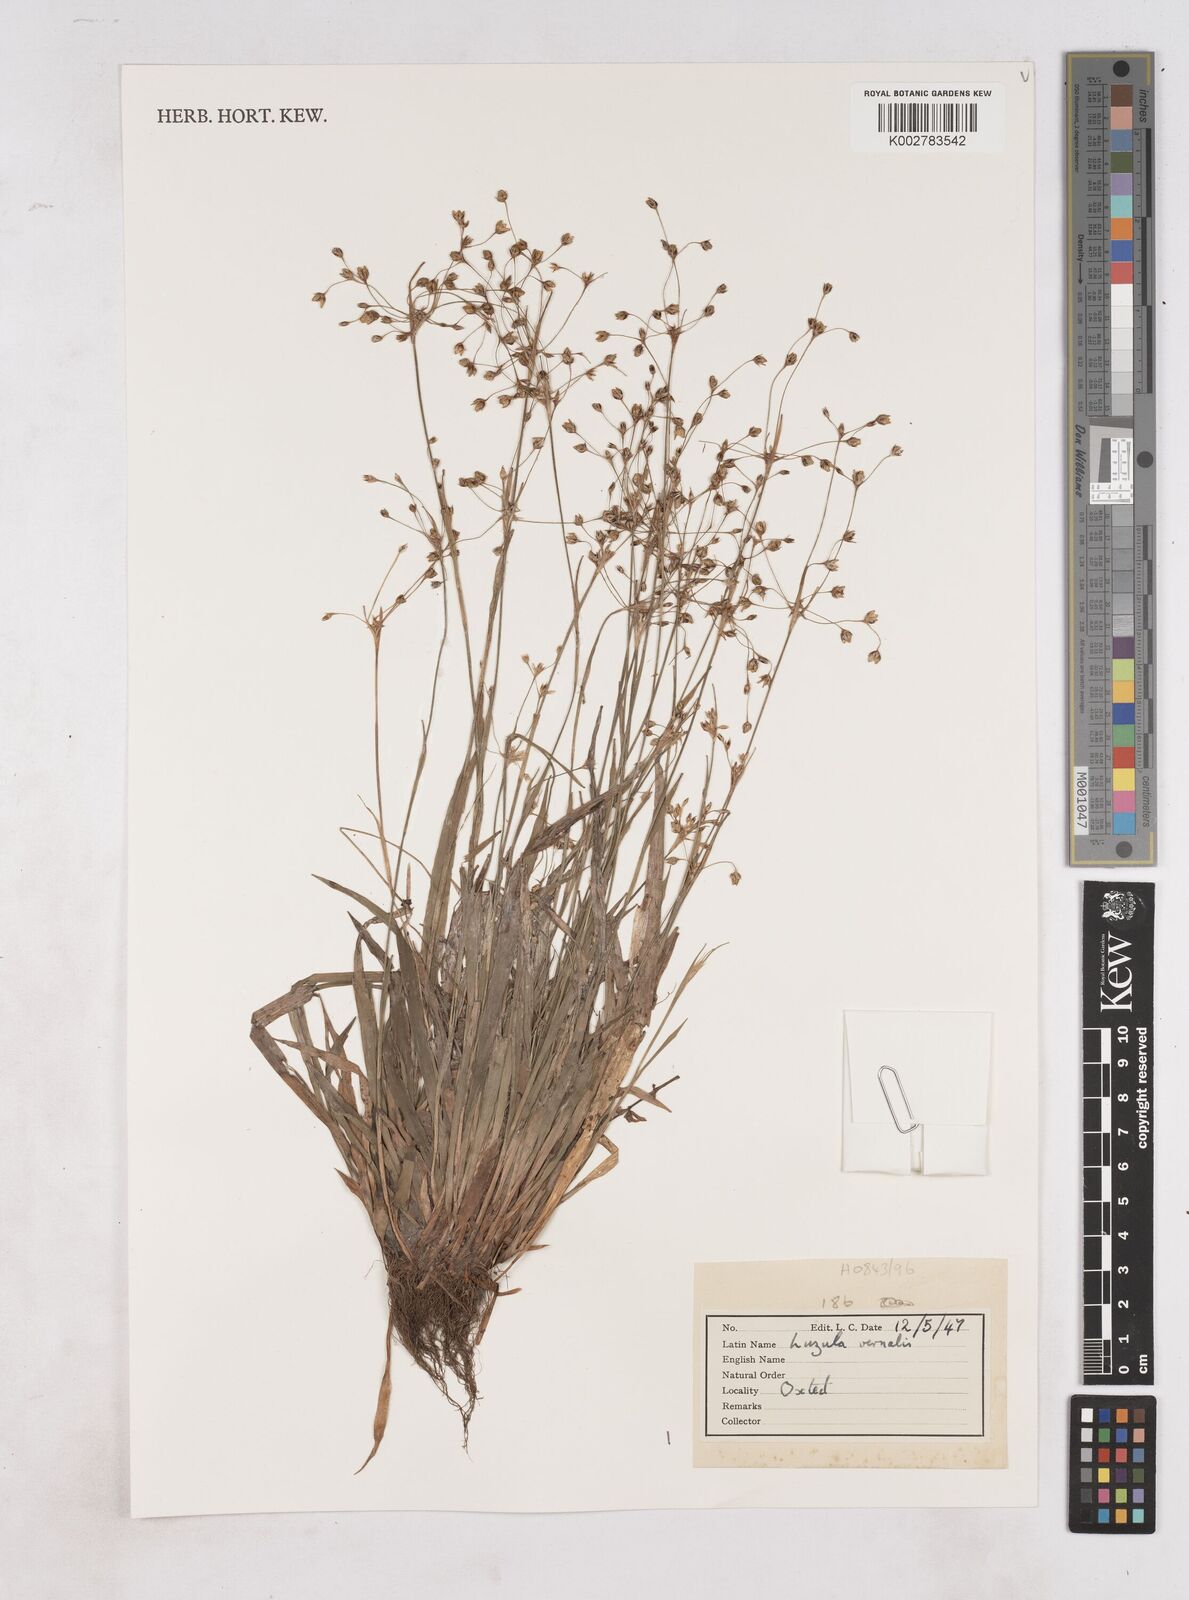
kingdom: Plantae
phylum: Tracheophyta
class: Liliopsida
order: Poales
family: Juncaceae
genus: Luzula
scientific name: Luzula pilosa
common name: Hairy wood-rush
